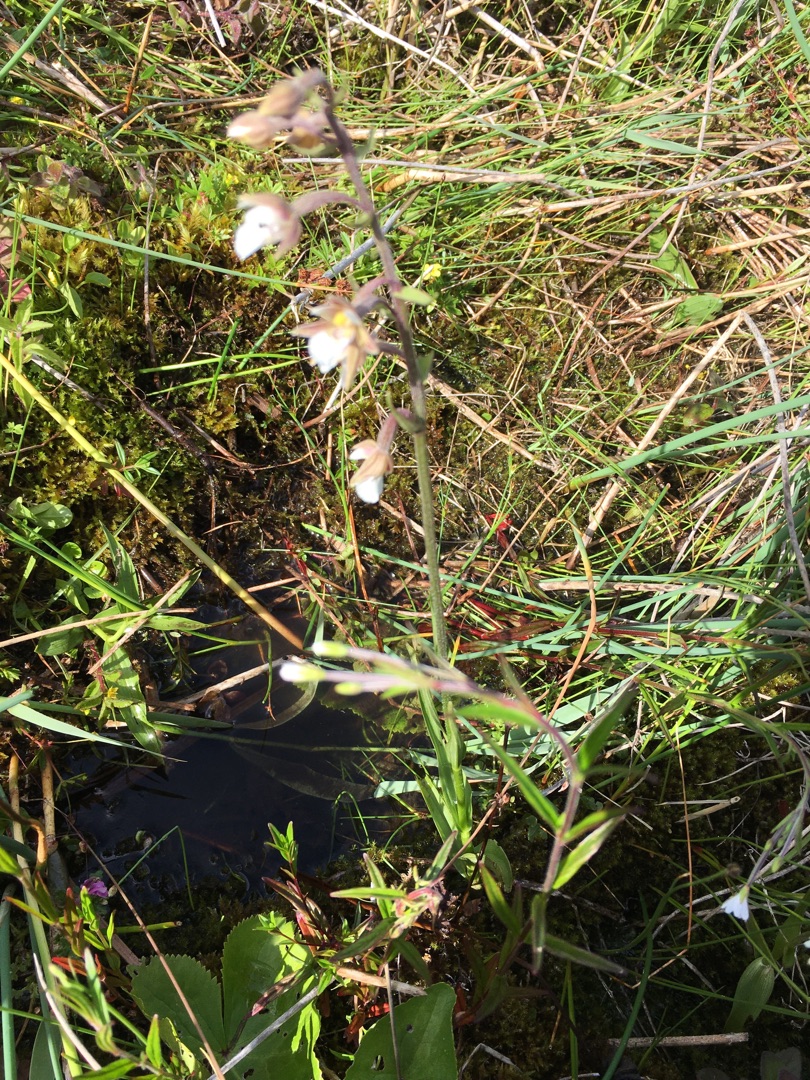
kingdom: Plantae
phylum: Tracheophyta
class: Liliopsida
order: Asparagales
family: Orchidaceae
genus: Epipactis
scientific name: Epipactis palustris
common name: Sump-hullæbe
